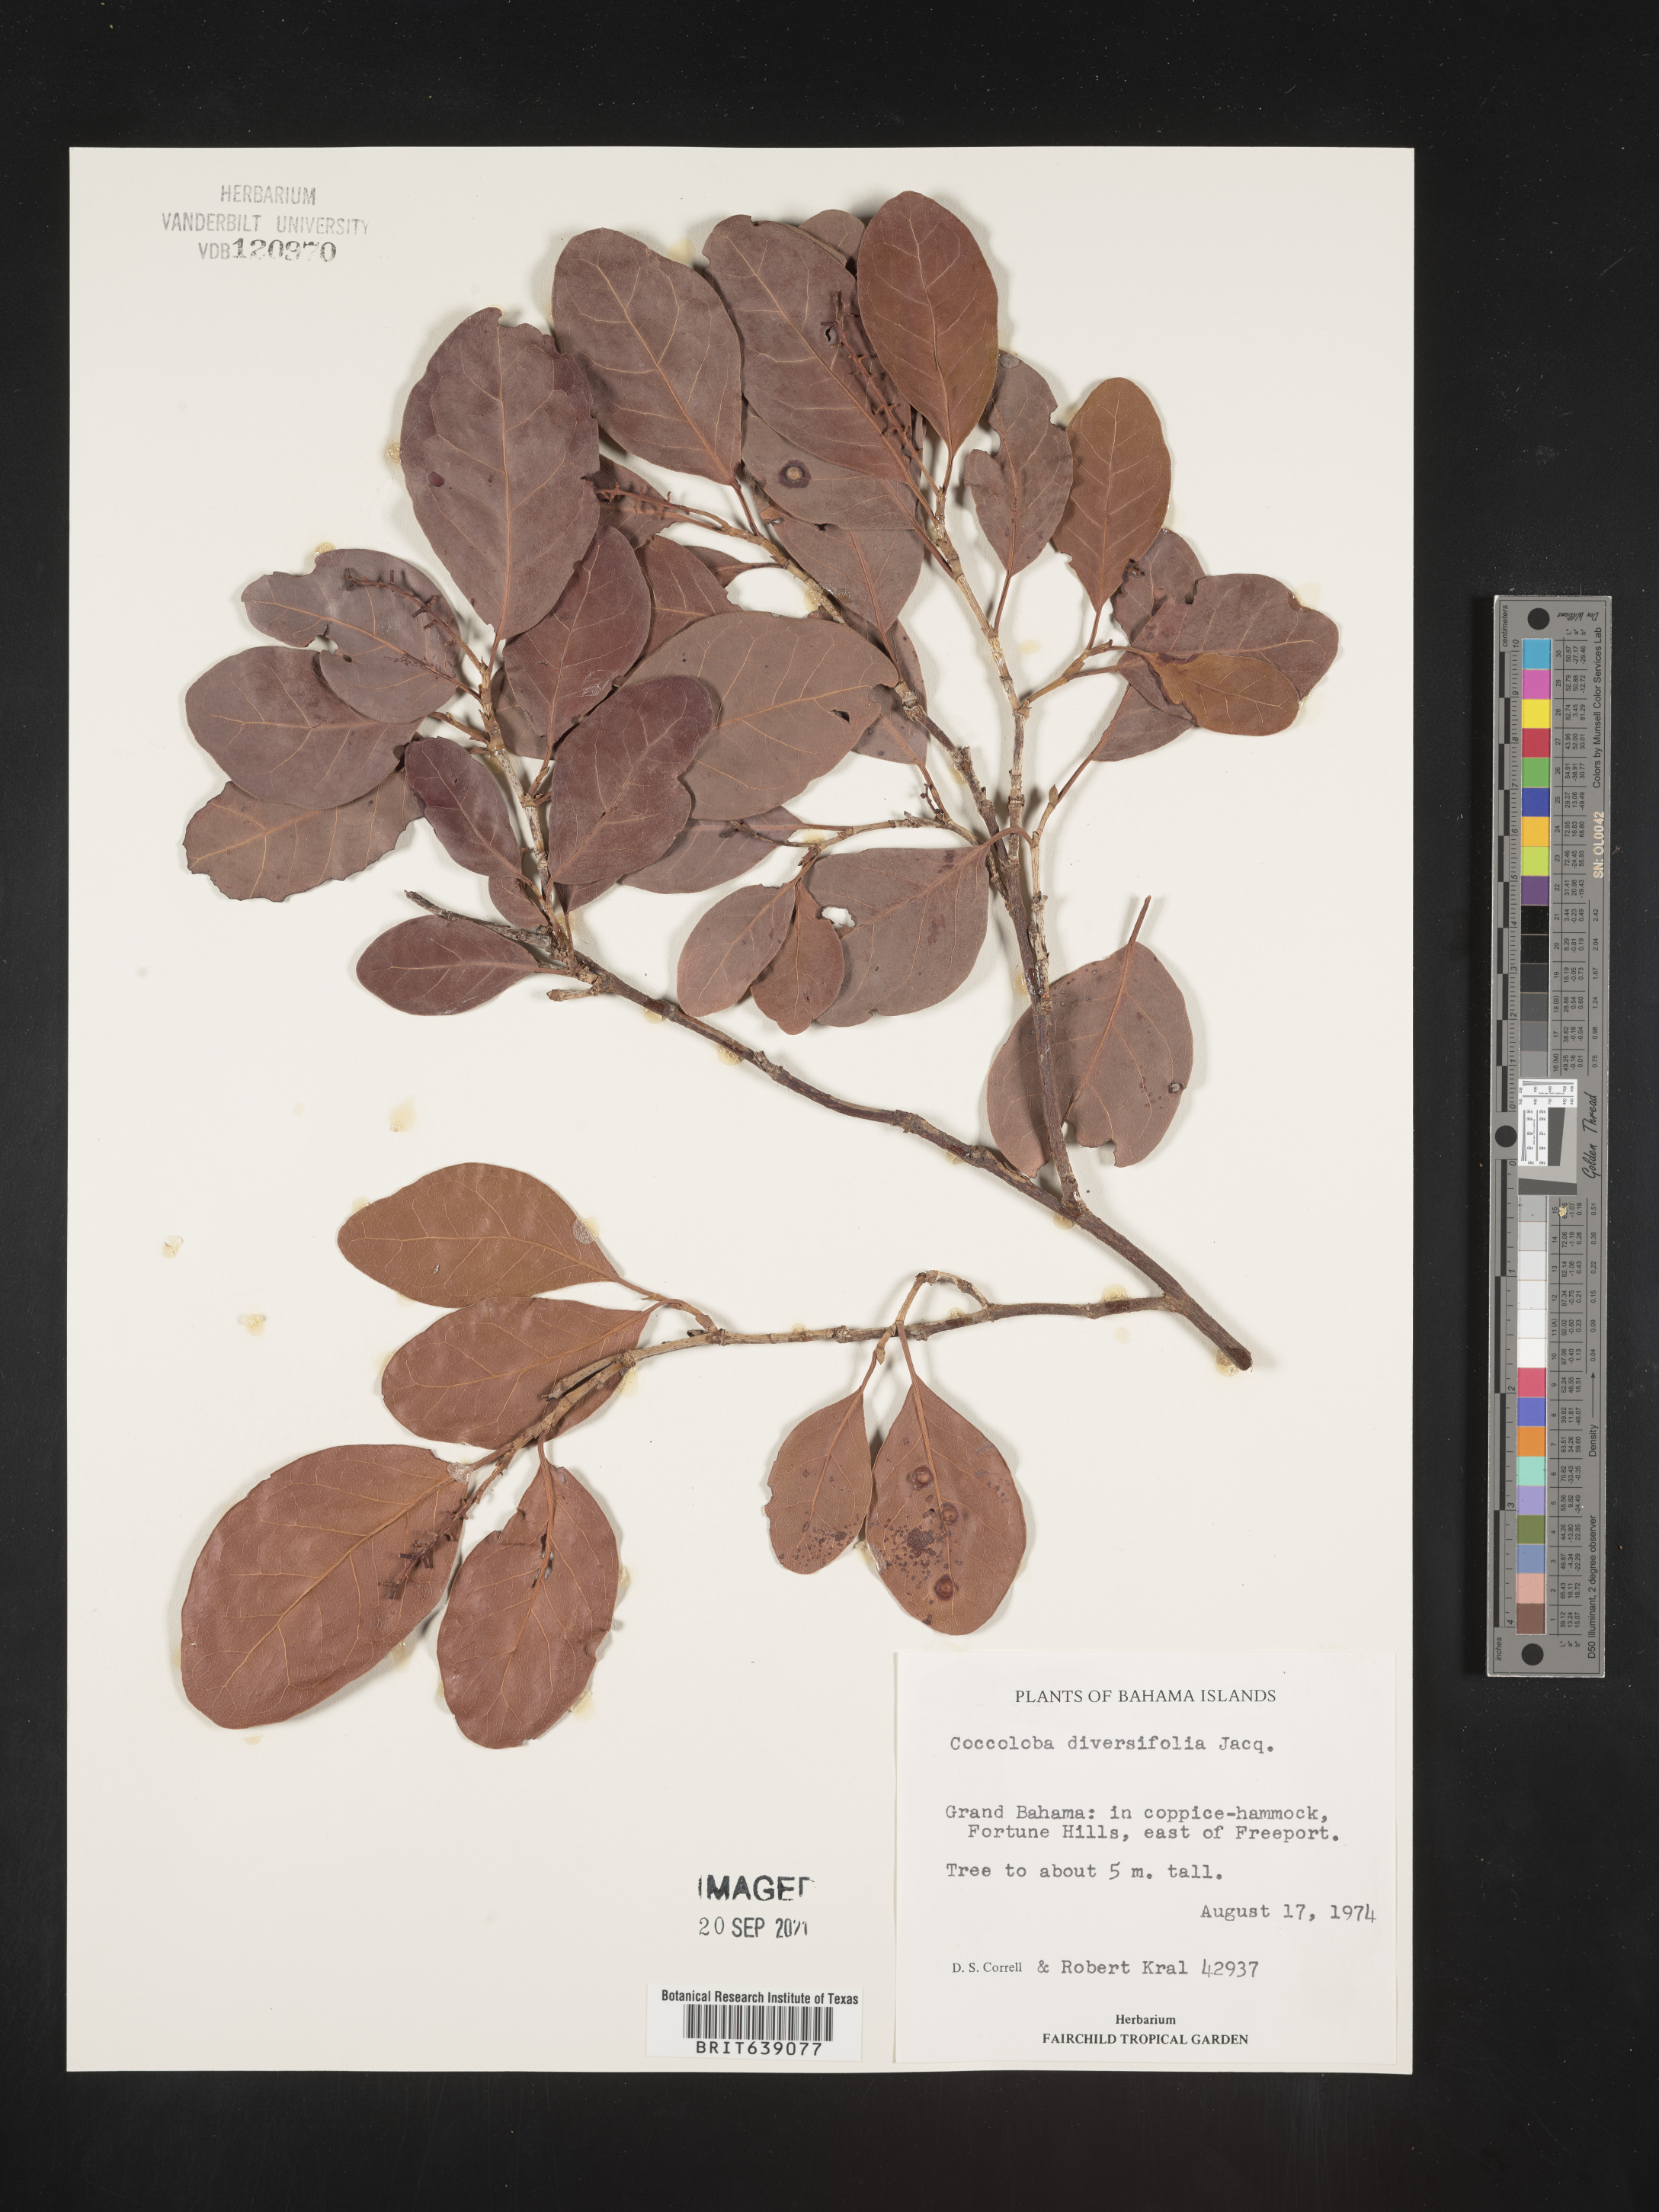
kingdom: Plantae
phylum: Tracheophyta
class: Magnoliopsida
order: Caryophyllales
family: Polygonaceae
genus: Coccoloba
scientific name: Coccoloba
